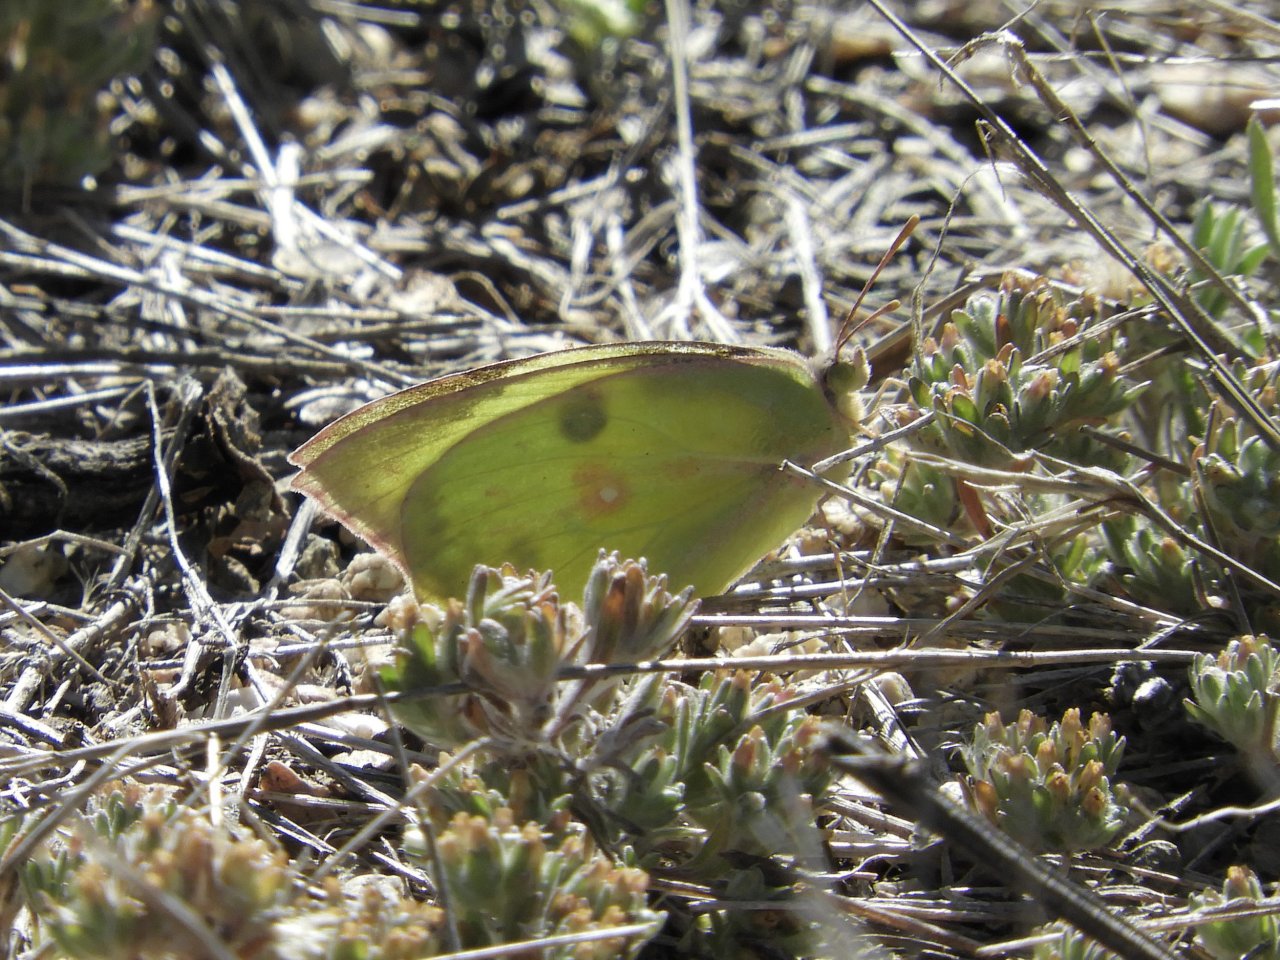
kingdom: Animalia
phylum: Arthropoda
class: Insecta
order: Lepidoptera
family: Pieridae
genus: Zerene
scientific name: Zerene cesonia
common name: Southern Dogface
